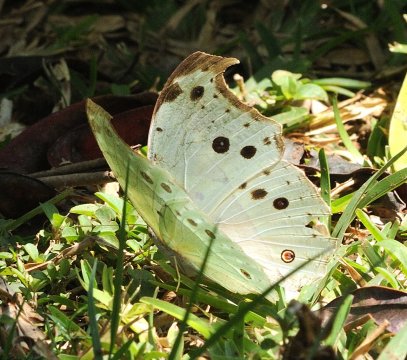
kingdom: Animalia
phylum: Arthropoda
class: Insecta
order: Lepidoptera
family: Nymphalidae
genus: Salamis
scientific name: Salamis Protogoniomorpha parhassus
